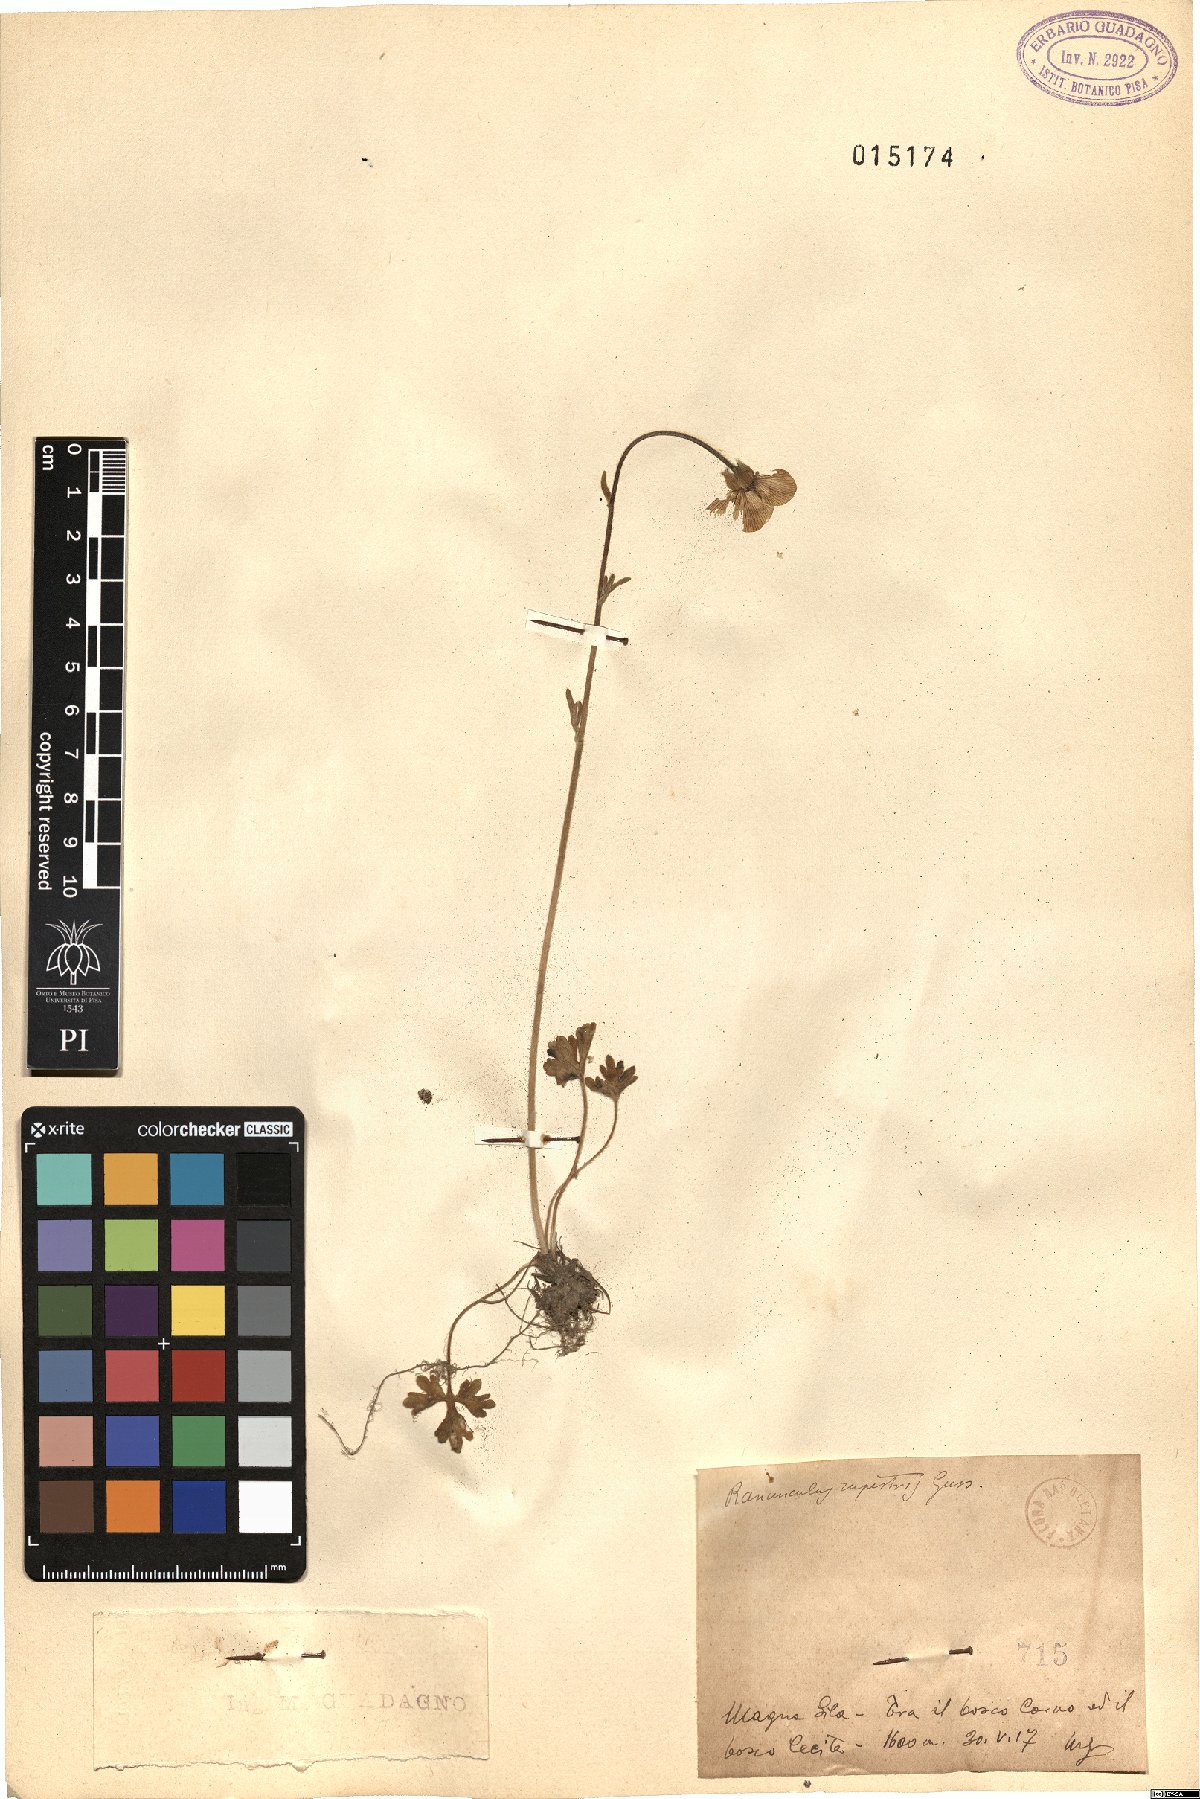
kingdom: Plantae
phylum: Tracheophyta
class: Magnoliopsida
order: Ranunculales
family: Ranunculaceae
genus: Ranunculus
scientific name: Ranunculus spicatus
